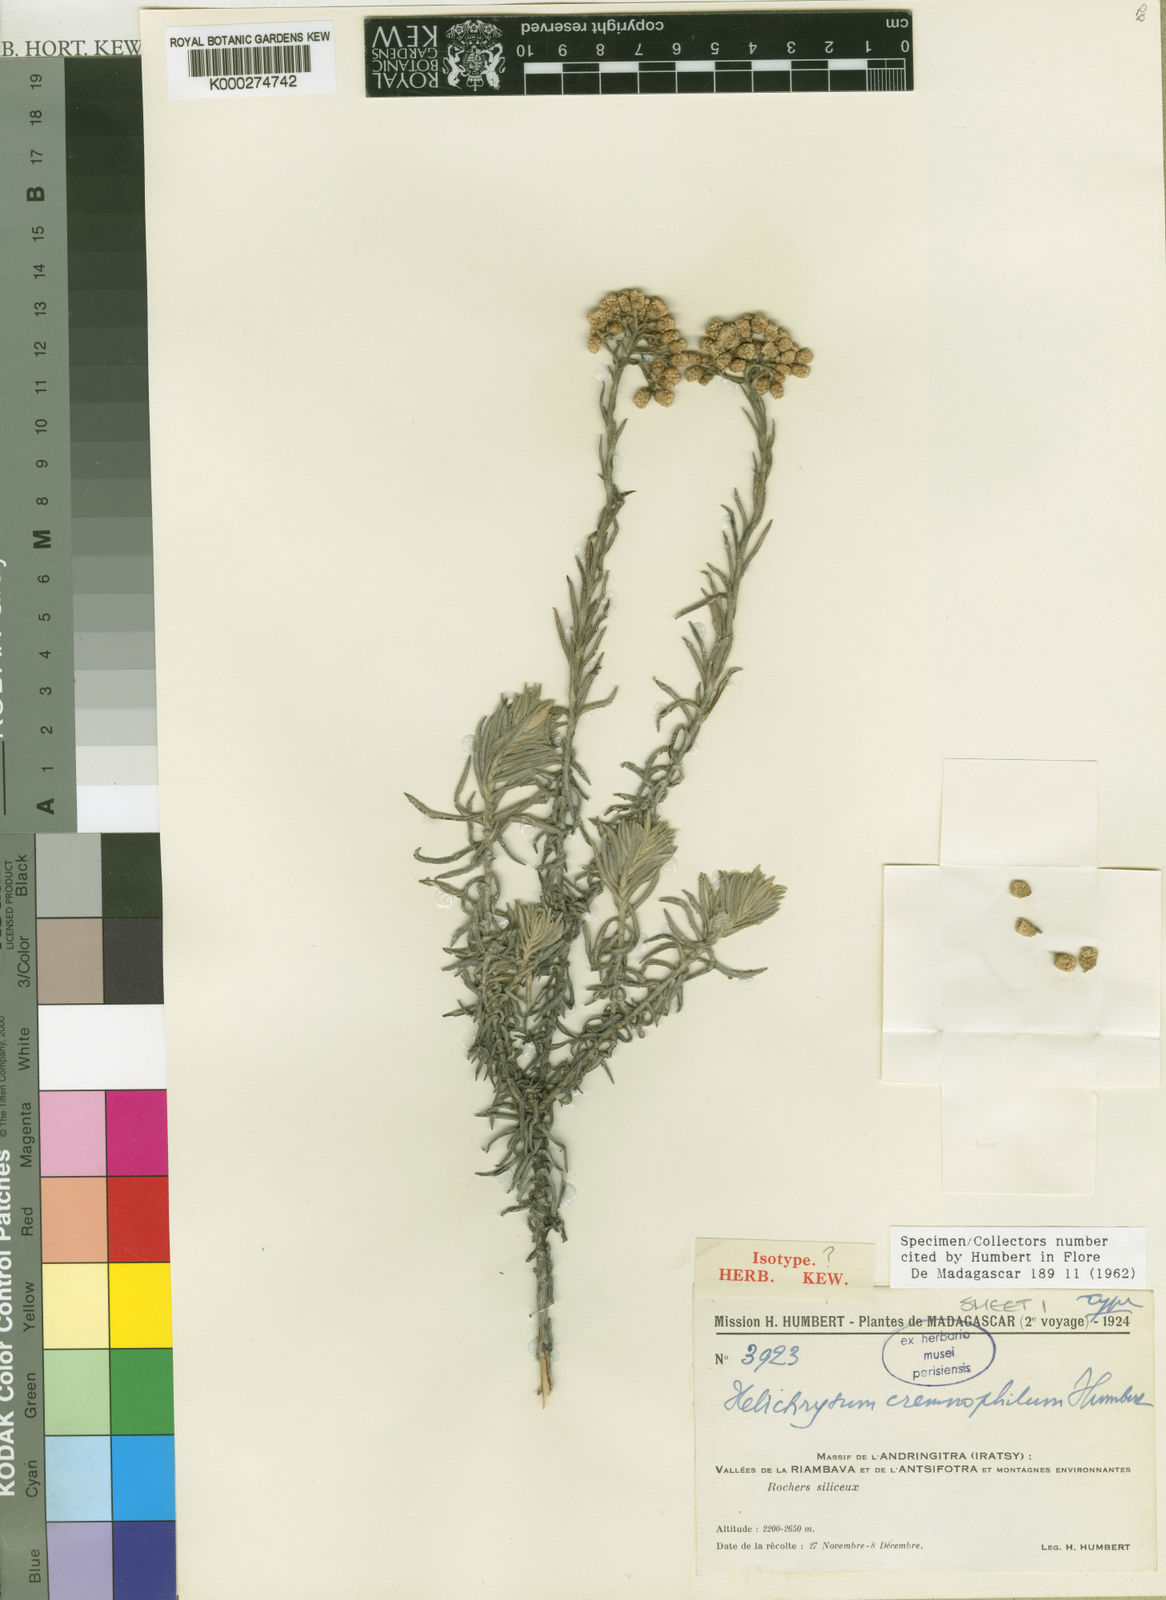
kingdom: Plantae
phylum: Tracheophyta
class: Magnoliopsida
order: Asterales
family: Asteraceae
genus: Helichrysum
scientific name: Helichrysum cremnophilum
